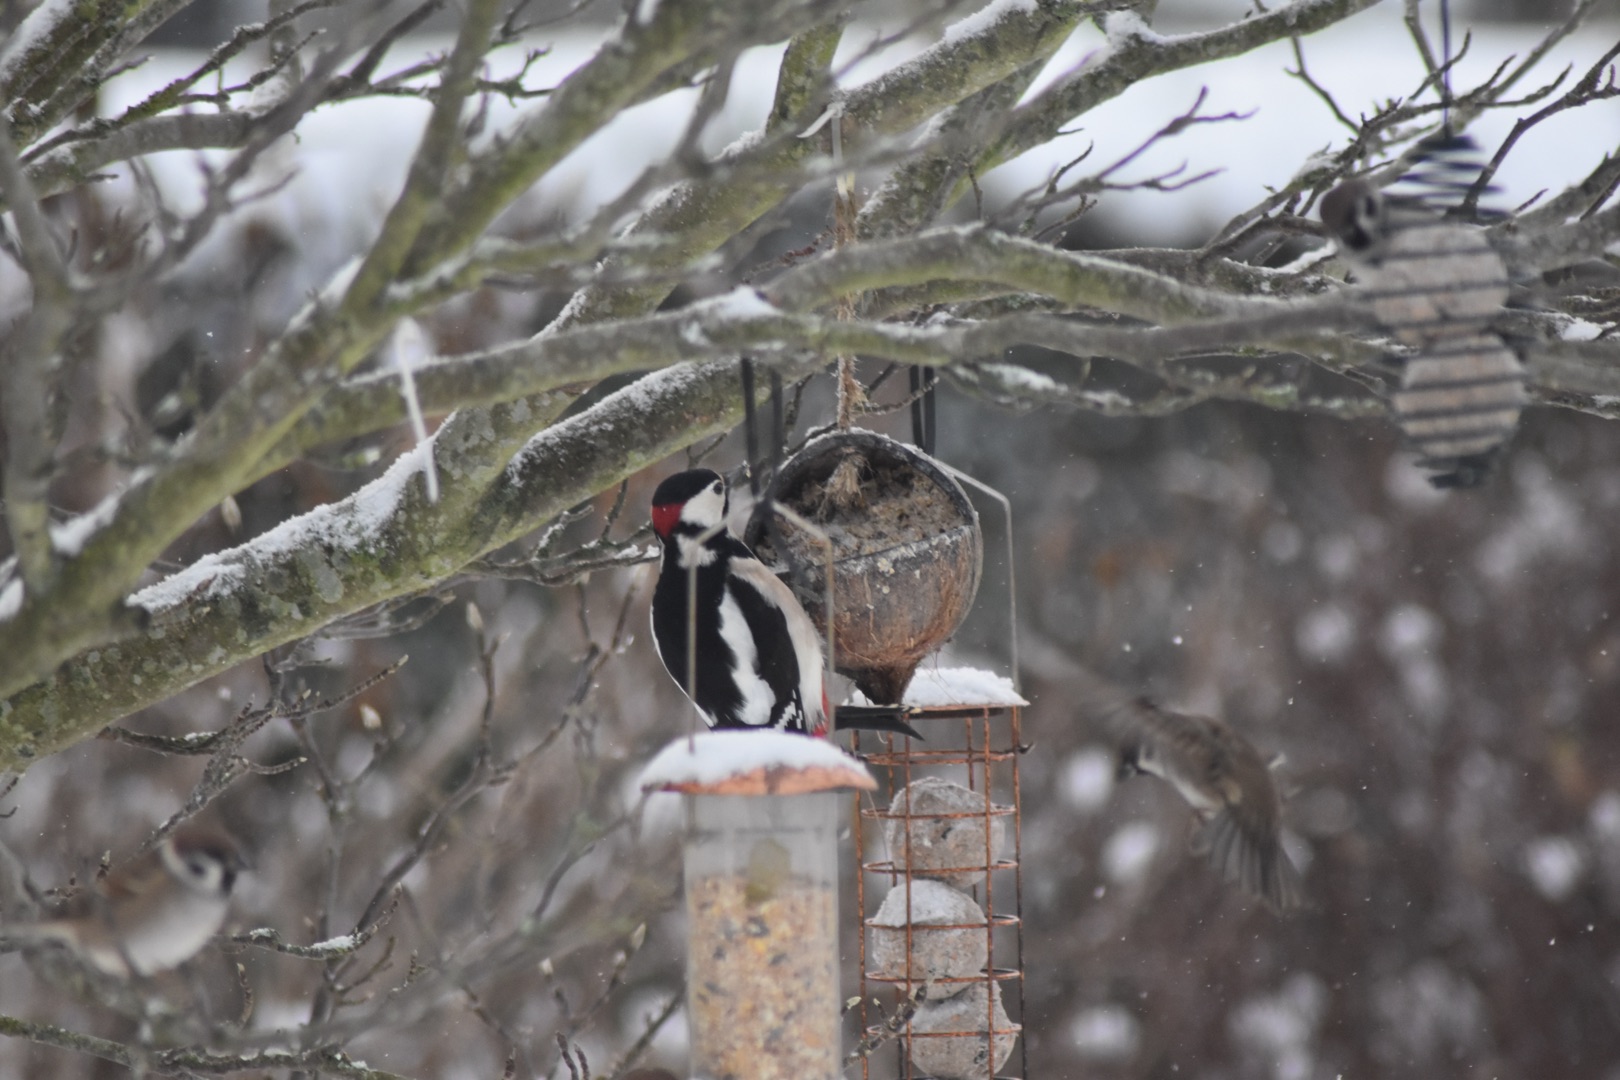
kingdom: Animalia
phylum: Chordata
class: Aves
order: Piciformes
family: Picidae
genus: Dendrocopos
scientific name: Dendrocopos major
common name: Stor flagspætte
